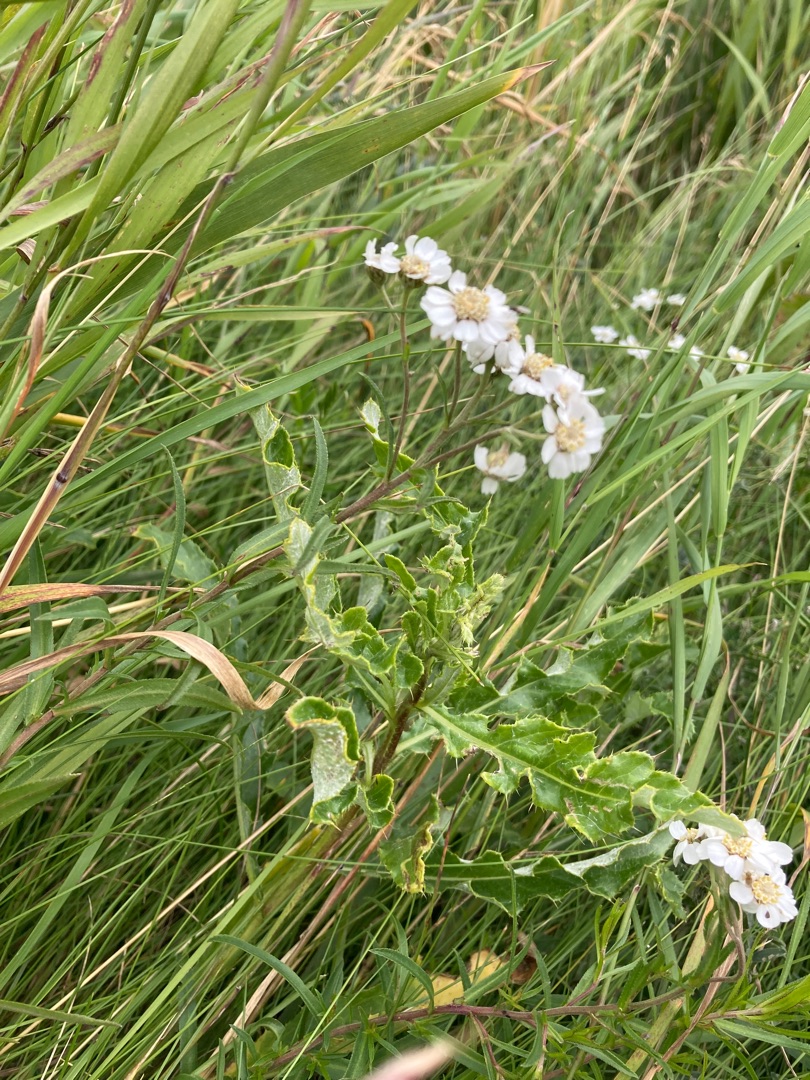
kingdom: Plantae
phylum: Tracheophyta
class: Magnoliopsida
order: Asterales
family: Asteraceae
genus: Achillea
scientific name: Achillea ptarmica
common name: Nyse-røllike
